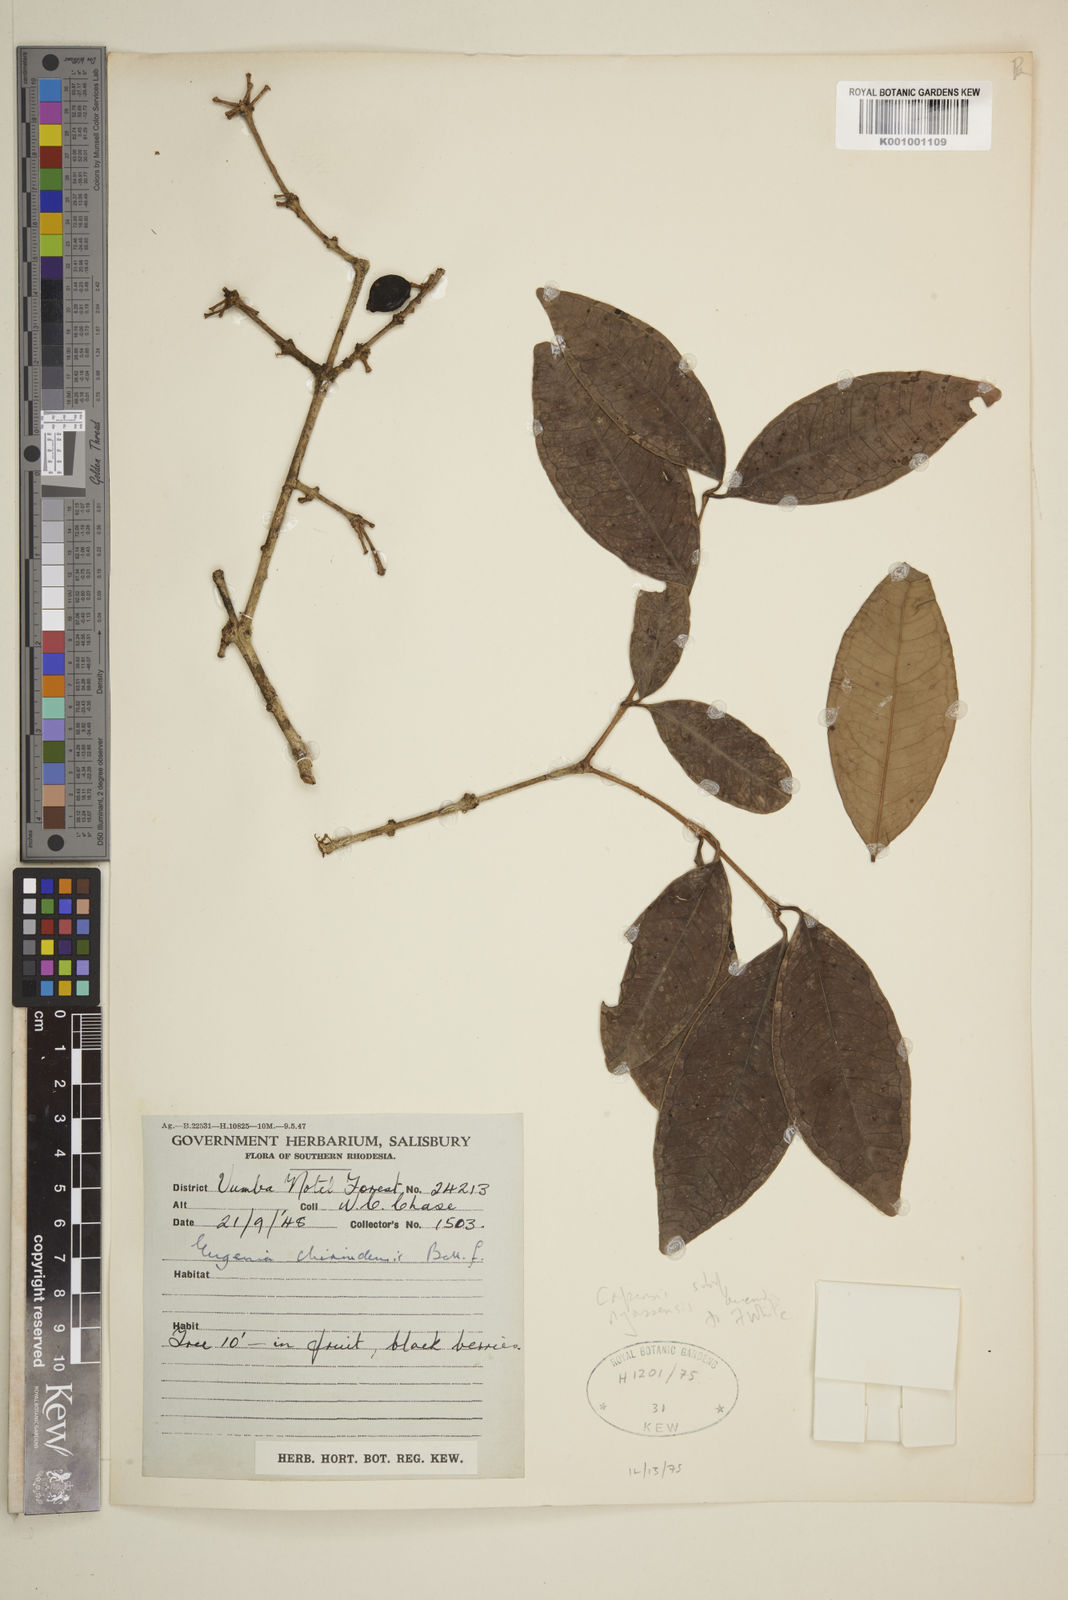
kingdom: Plantae
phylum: Tracheophyta
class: Magnoliopsida
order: Myrtales
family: Myrtaceae
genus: Eugenia
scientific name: Eugenia capensis
